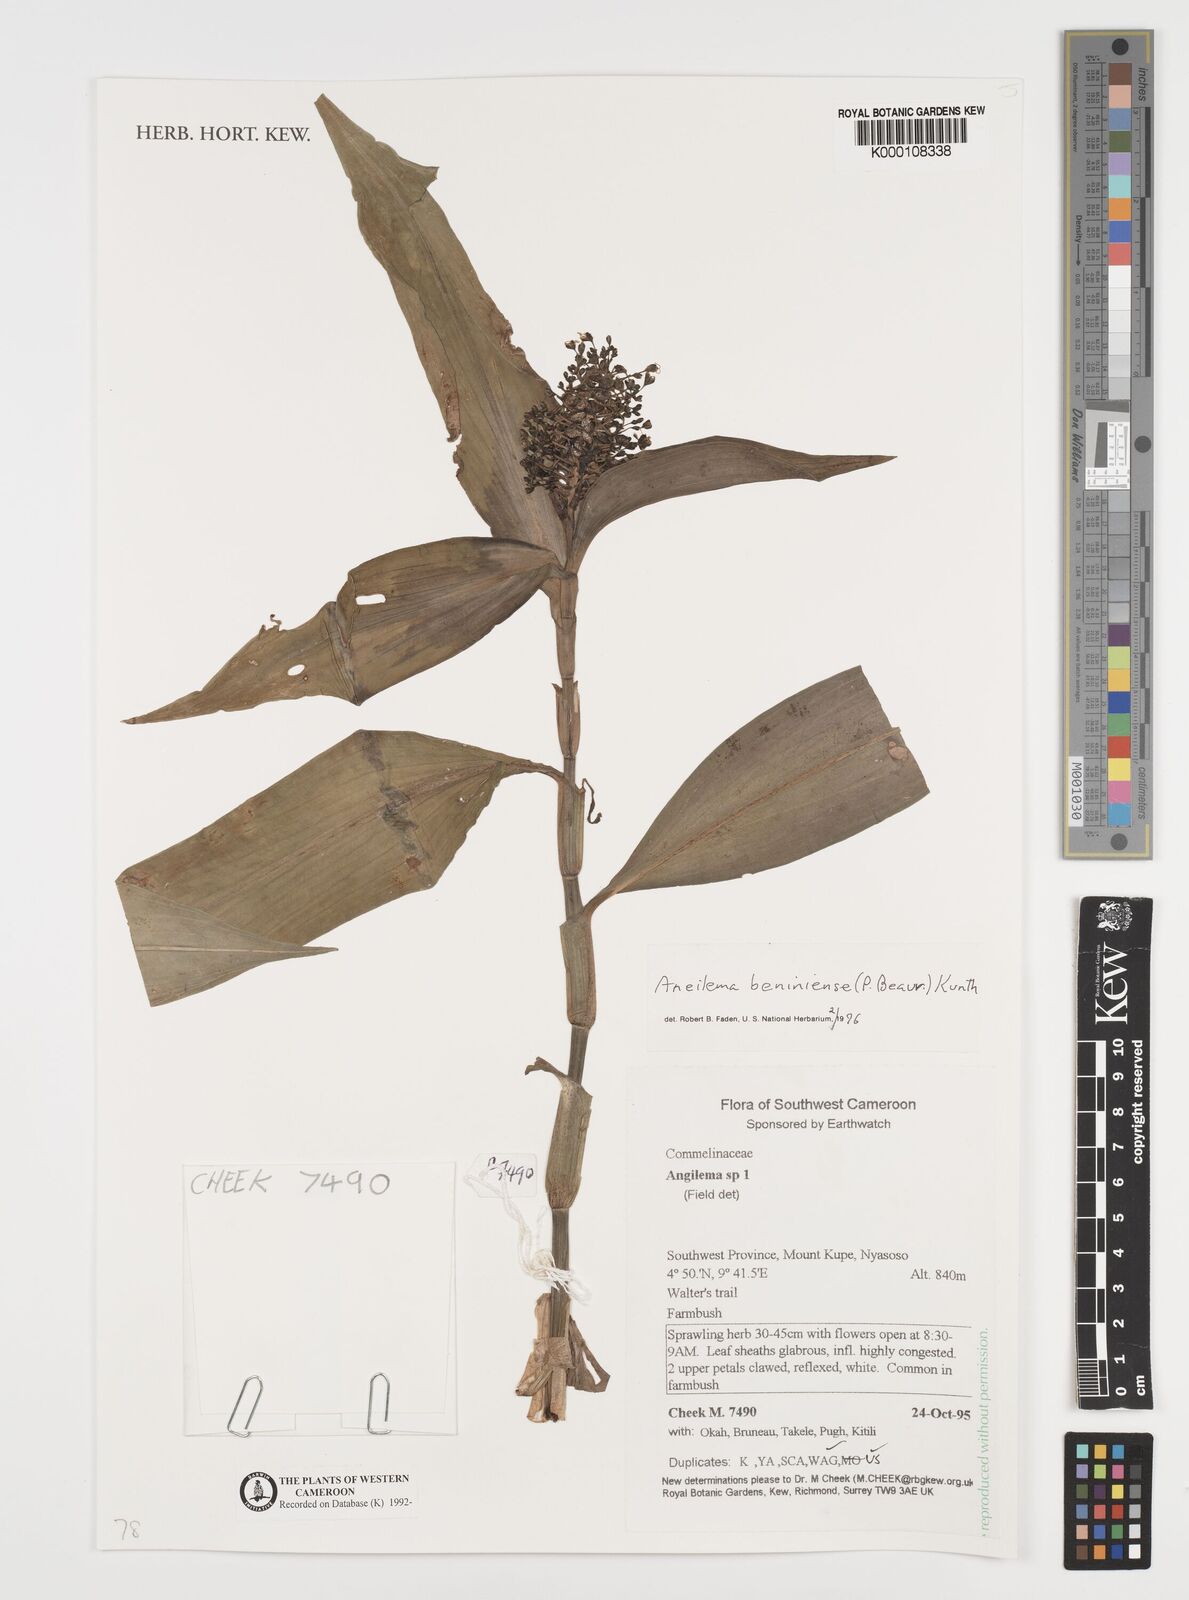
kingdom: Plantae
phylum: Tracheophyta
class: Liliopsida
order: Commelinales
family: Commelinaceae
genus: Aneilema
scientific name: Aneilema beniniense
